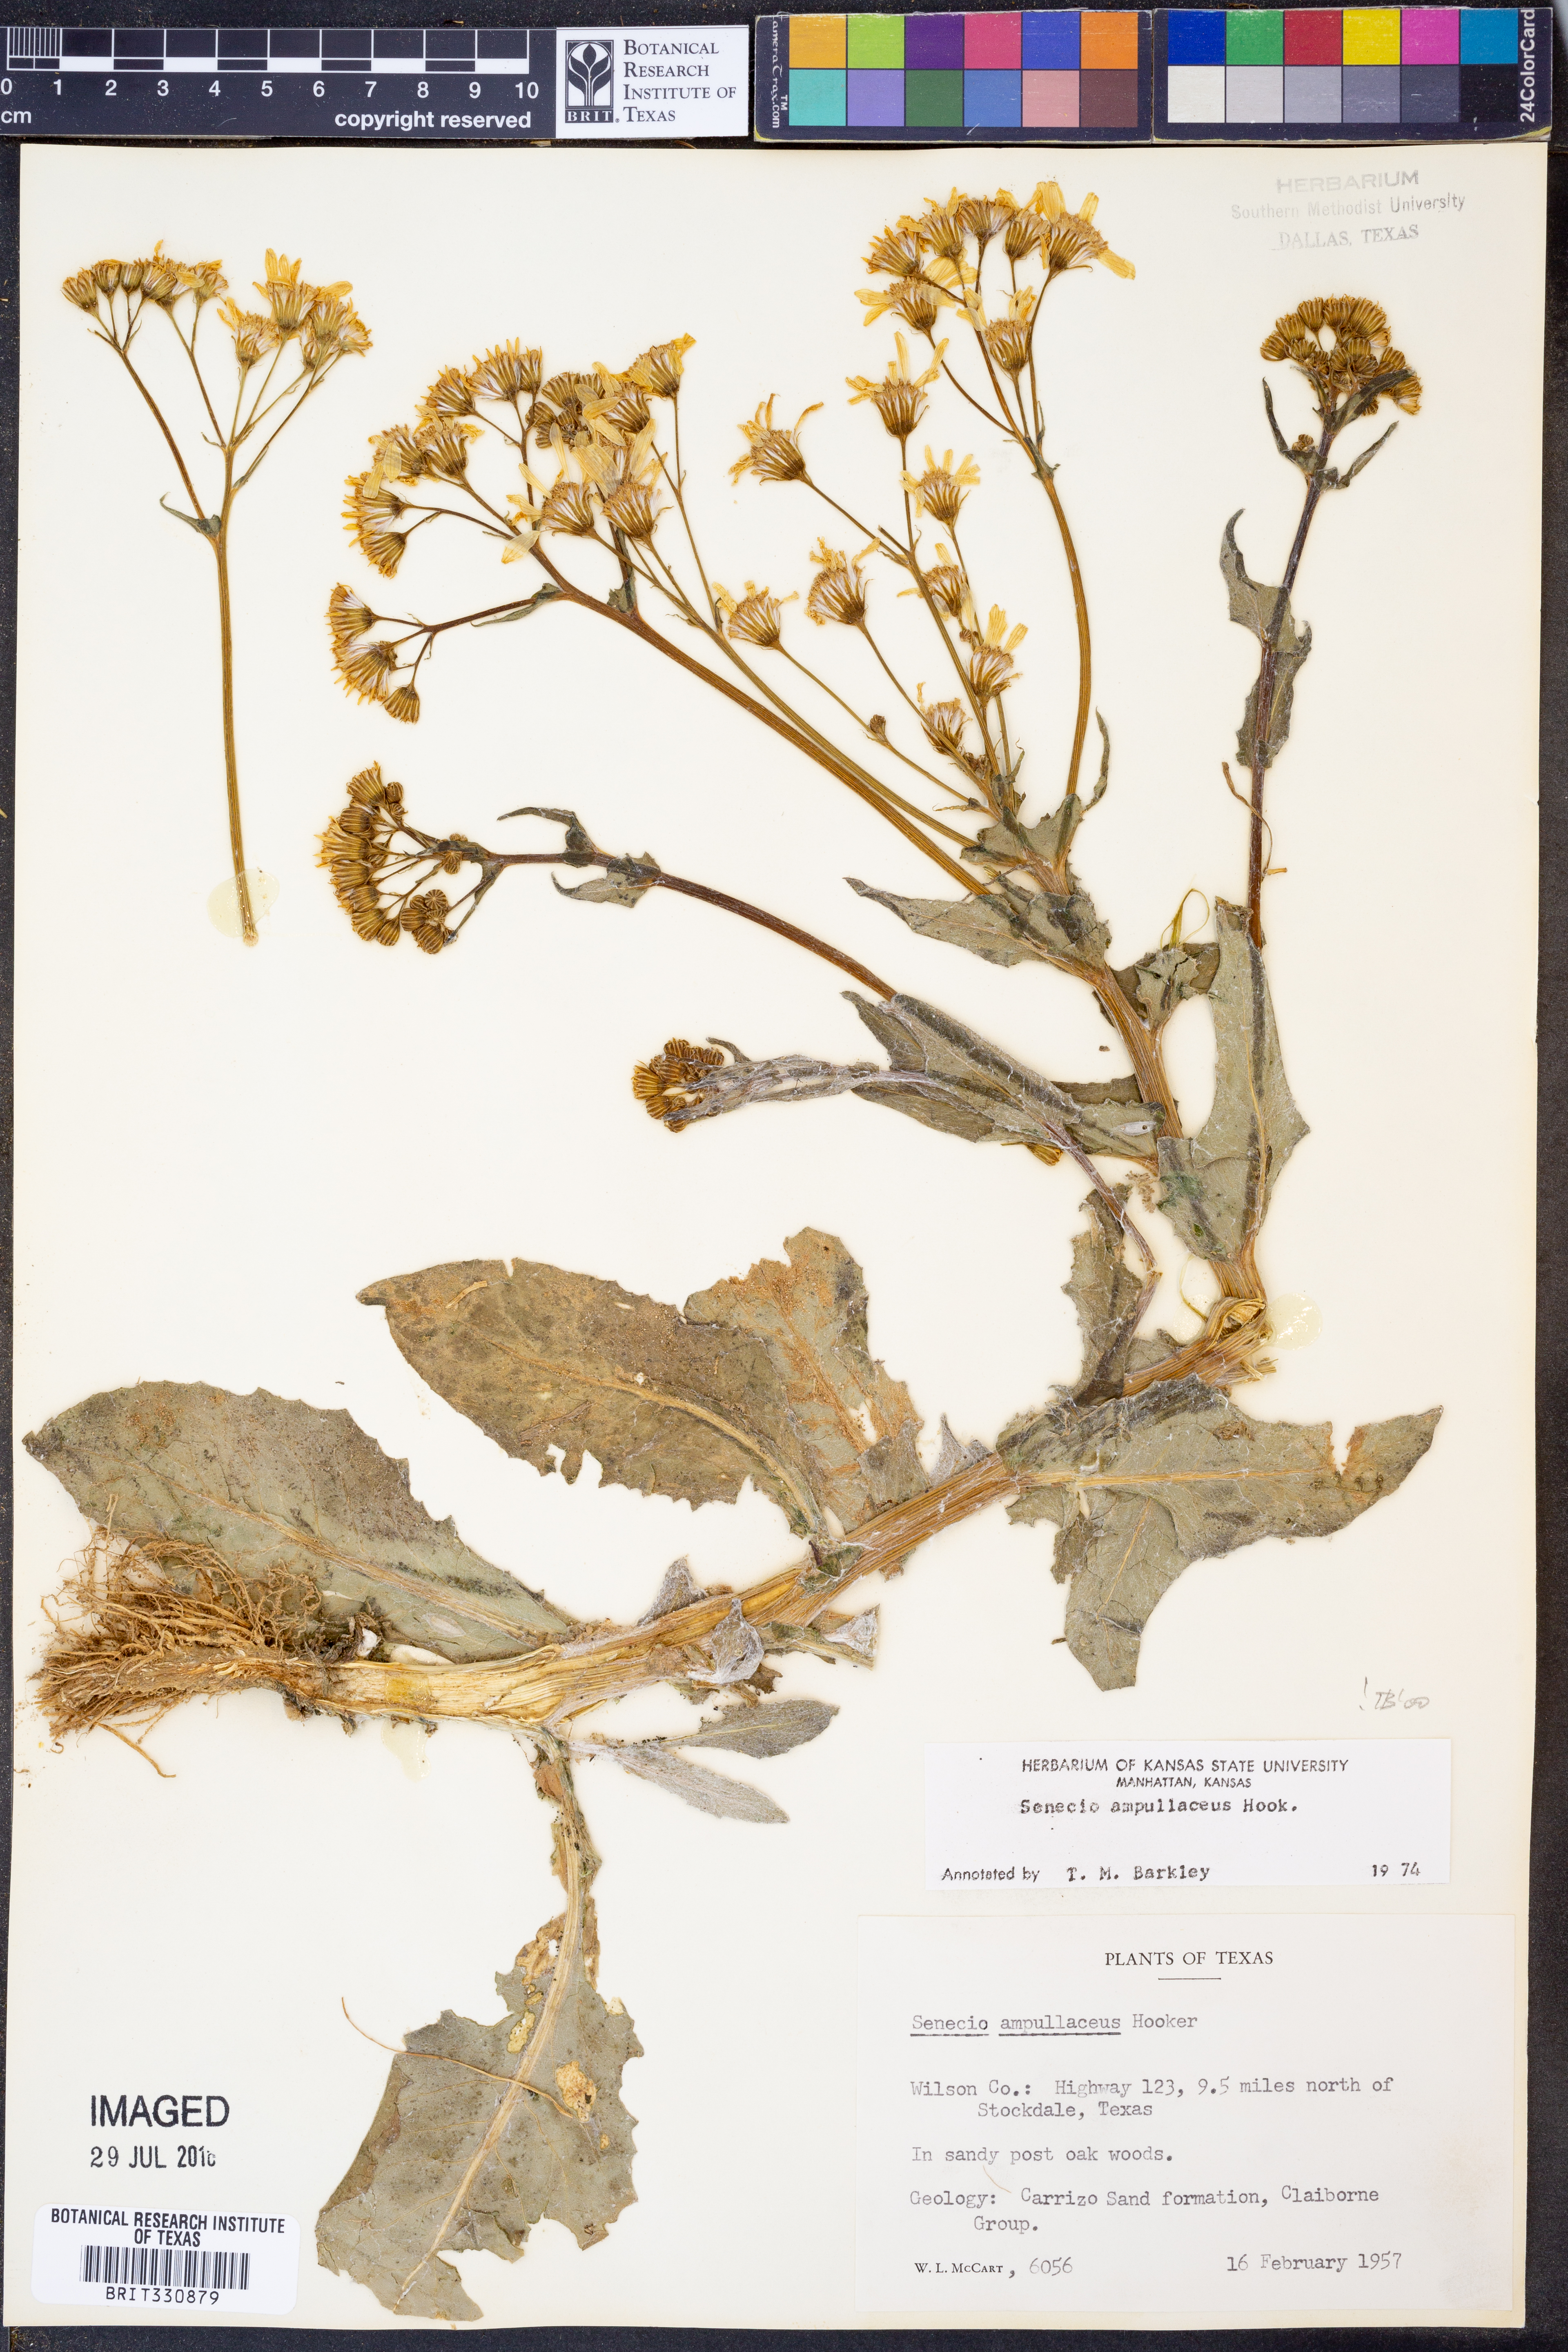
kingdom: Plantae
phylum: Tracheophyta
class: Magnoliopsida
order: Asterales
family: Asteraceae
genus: Senecio
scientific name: Senecio ampullaceus
